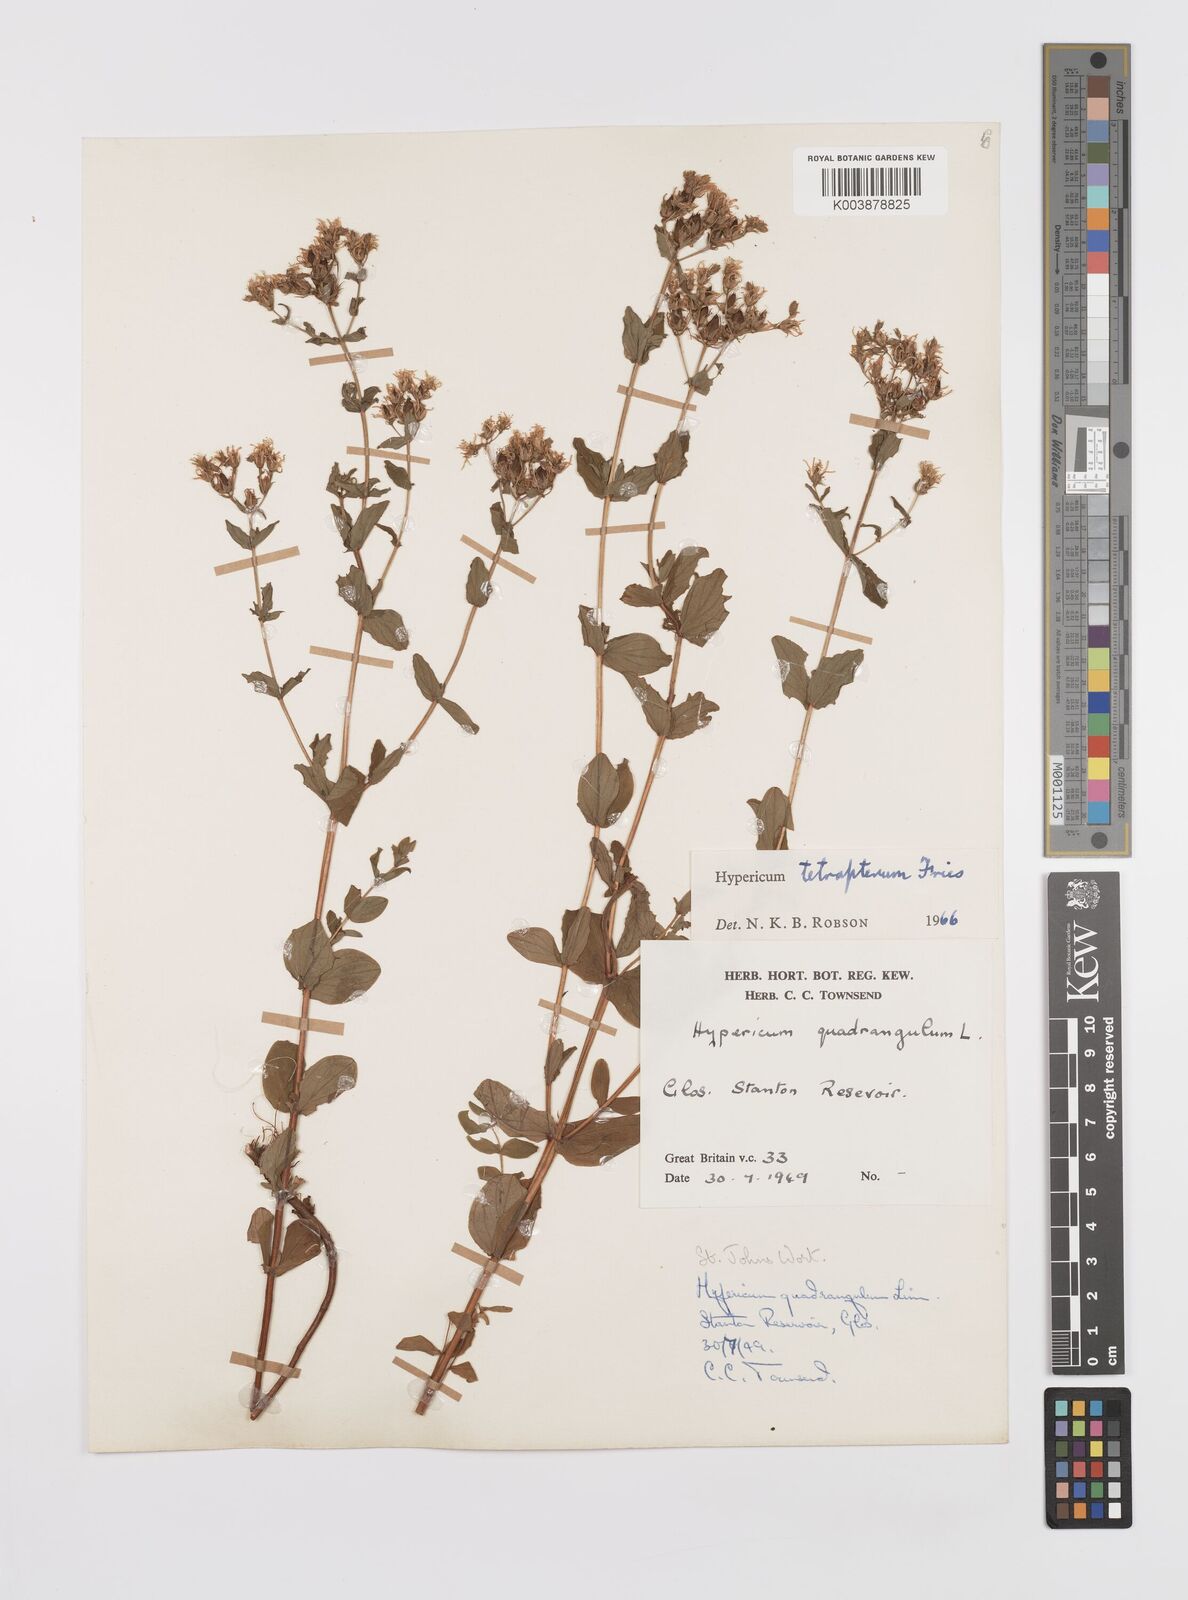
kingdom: Plantae
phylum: Tracheophyta
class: Magnoliopsida
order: Malpighiales
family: Hypericaceae
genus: Hypericum
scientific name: Hypericum tetrapterum
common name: Square-stalked st. john's-wort
